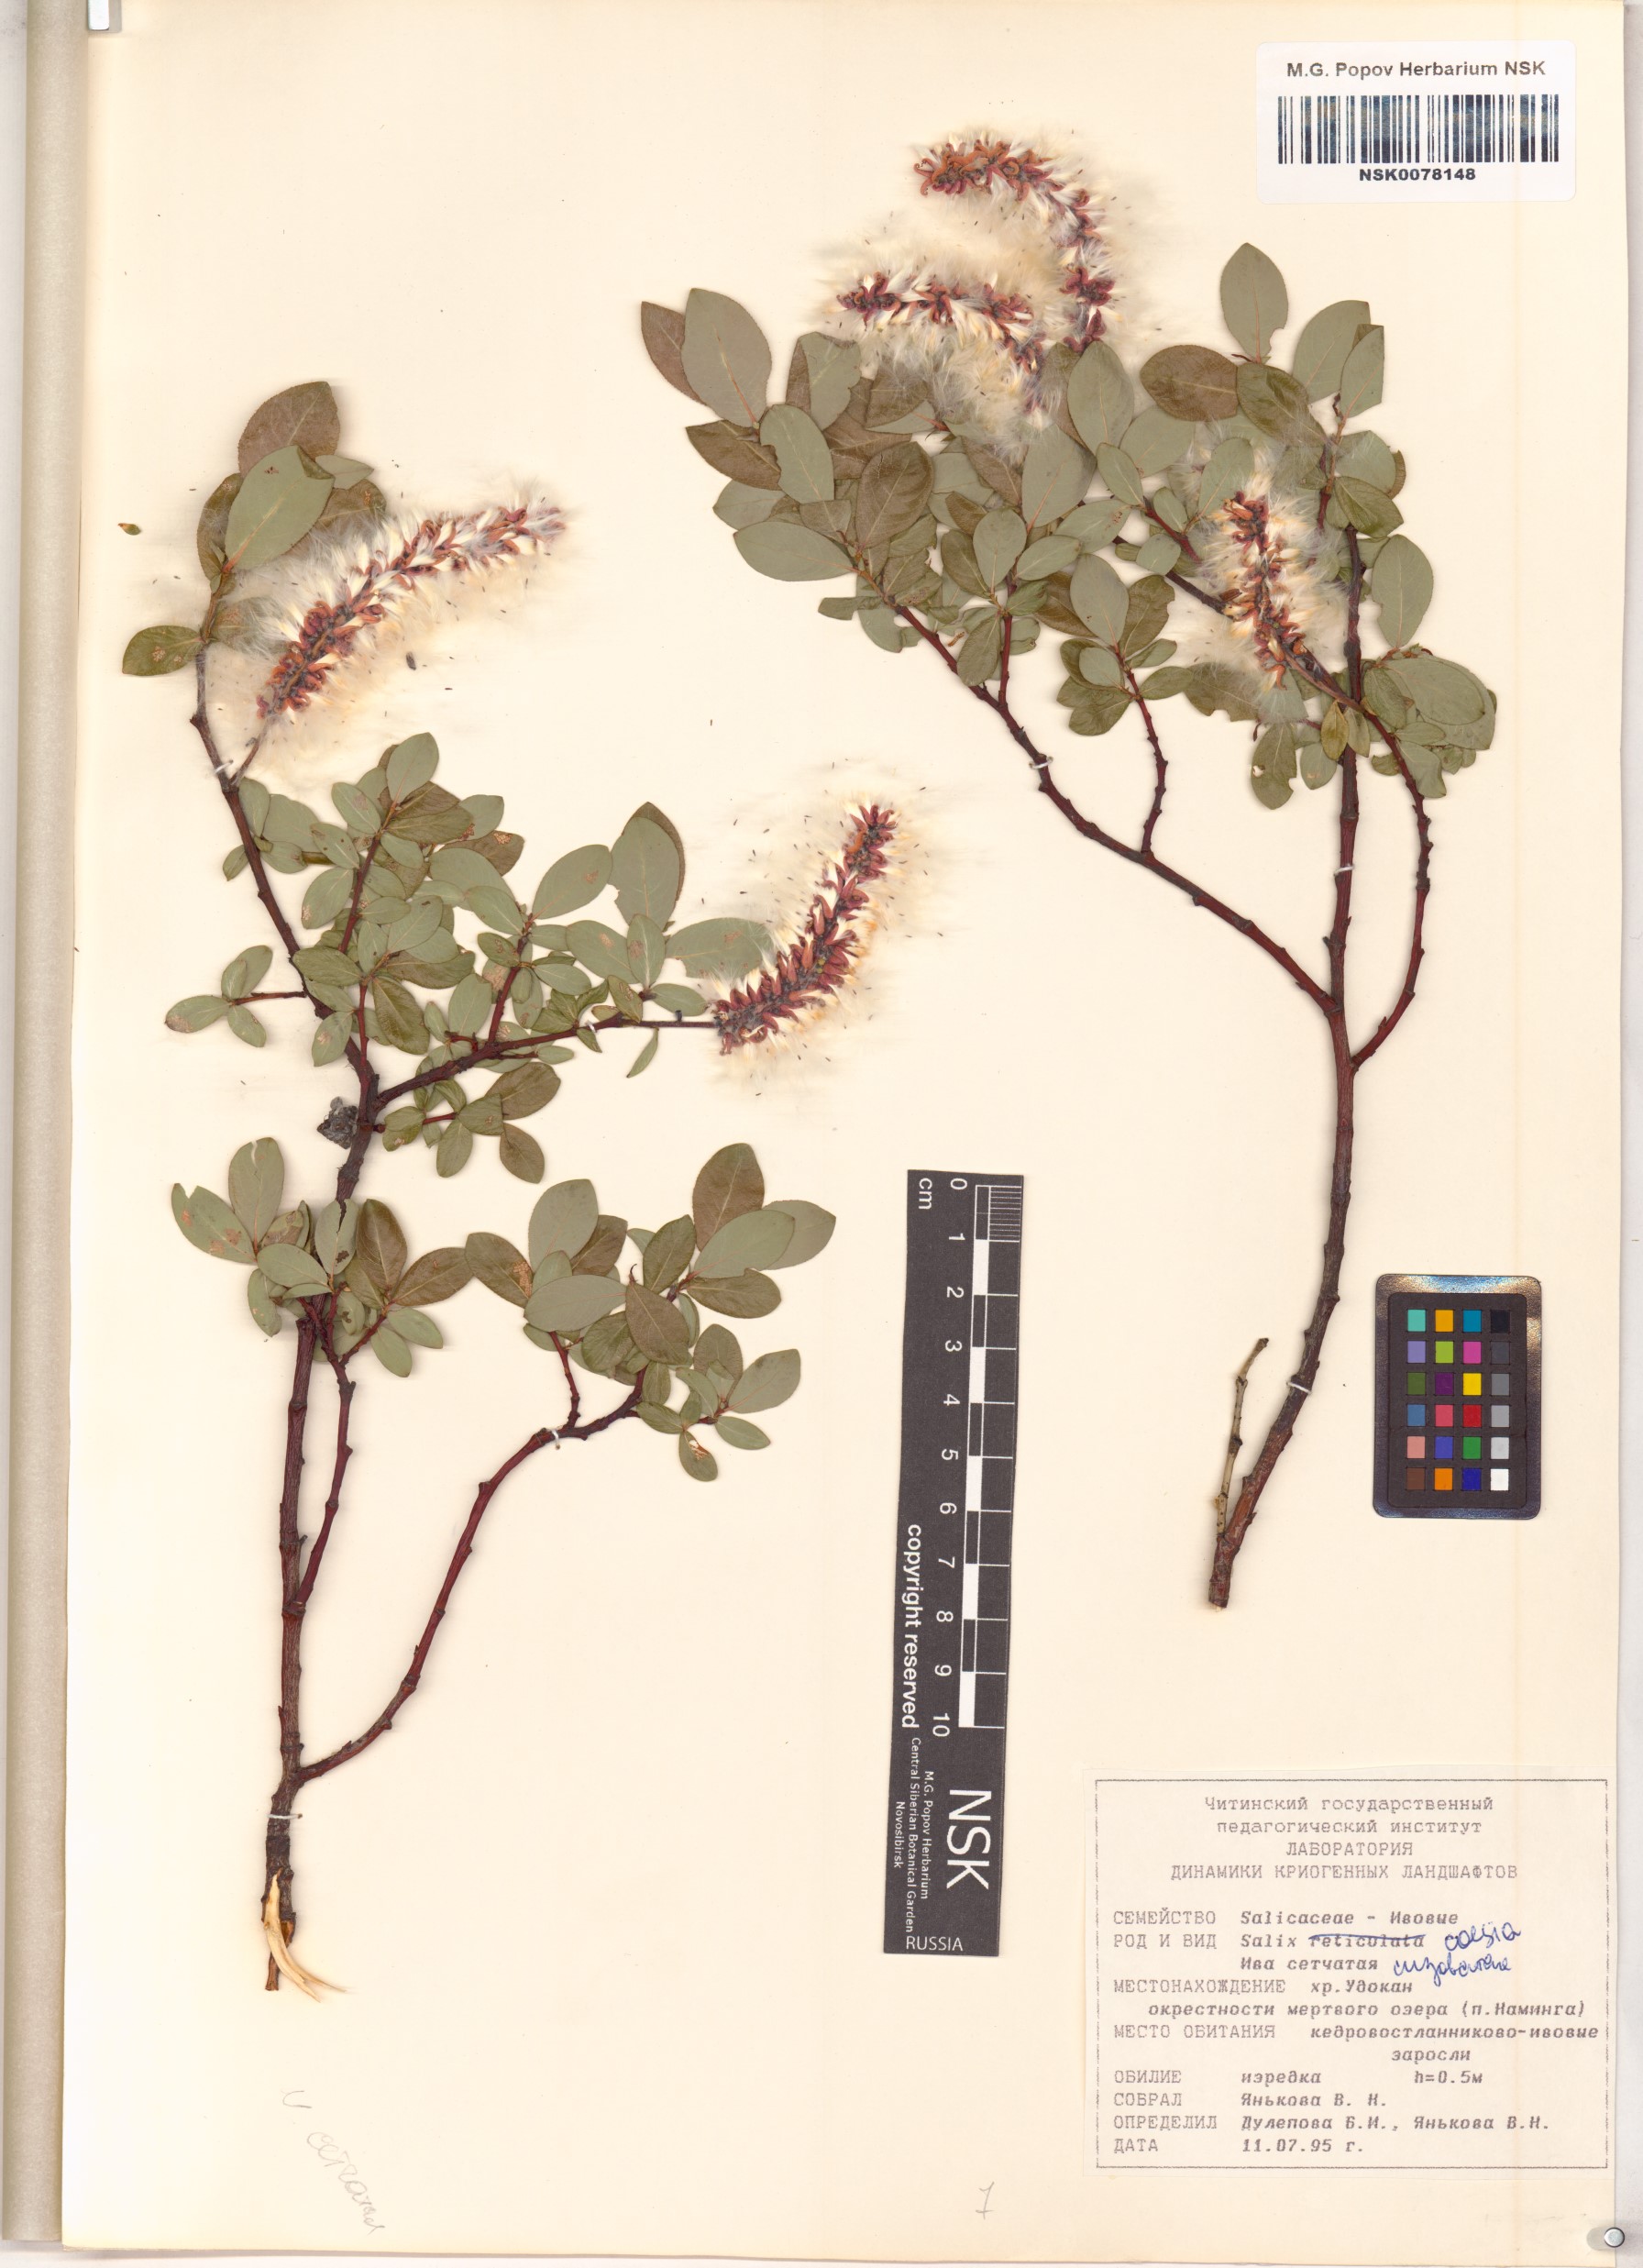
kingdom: Plantae
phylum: Tracheophyta
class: Magnoliopsida
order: Malpighiales
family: Salicaceae
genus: Salix
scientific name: Salix caesia
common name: Blue willow
